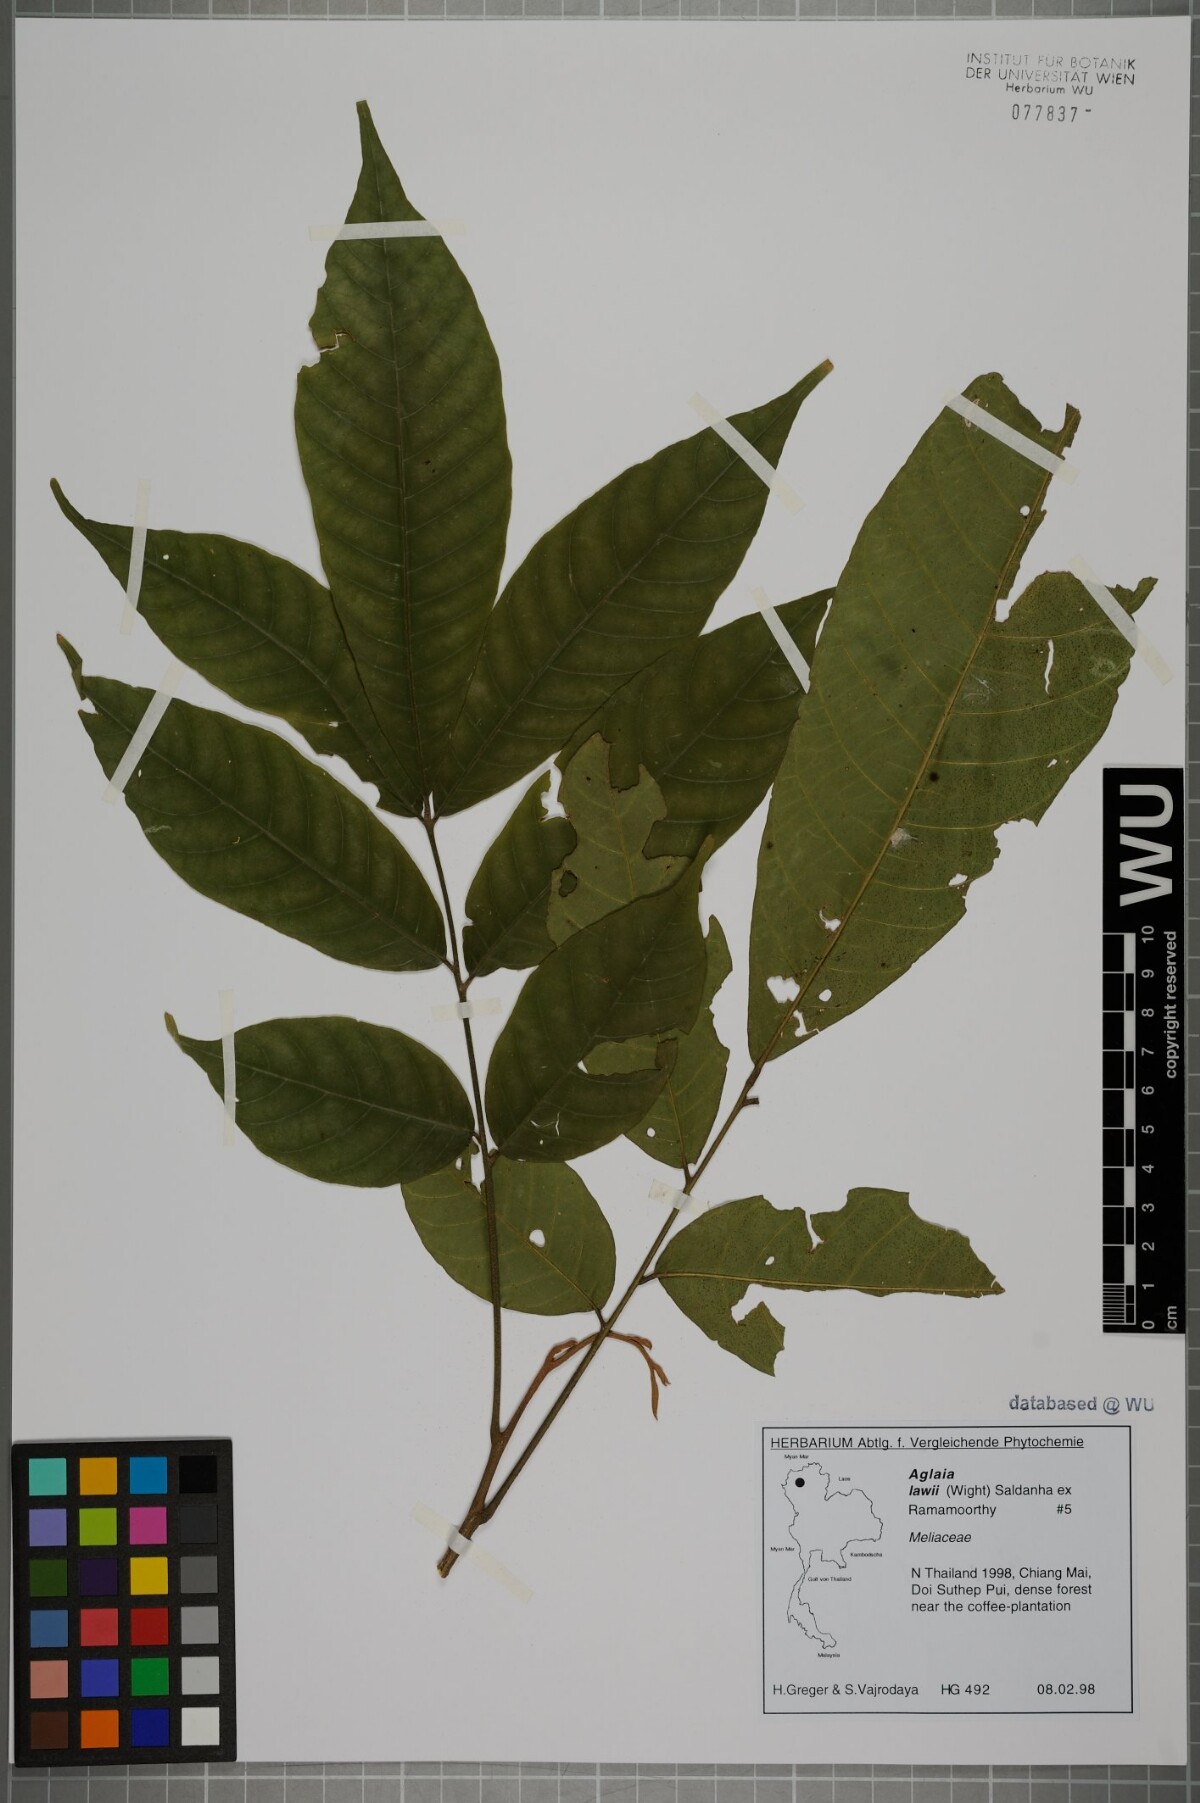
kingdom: Plantae
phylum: Tracheophyta
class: Magnoliopsida
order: Sapindales
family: Meliaceae
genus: Aglaia
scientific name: Aglaia lawii
